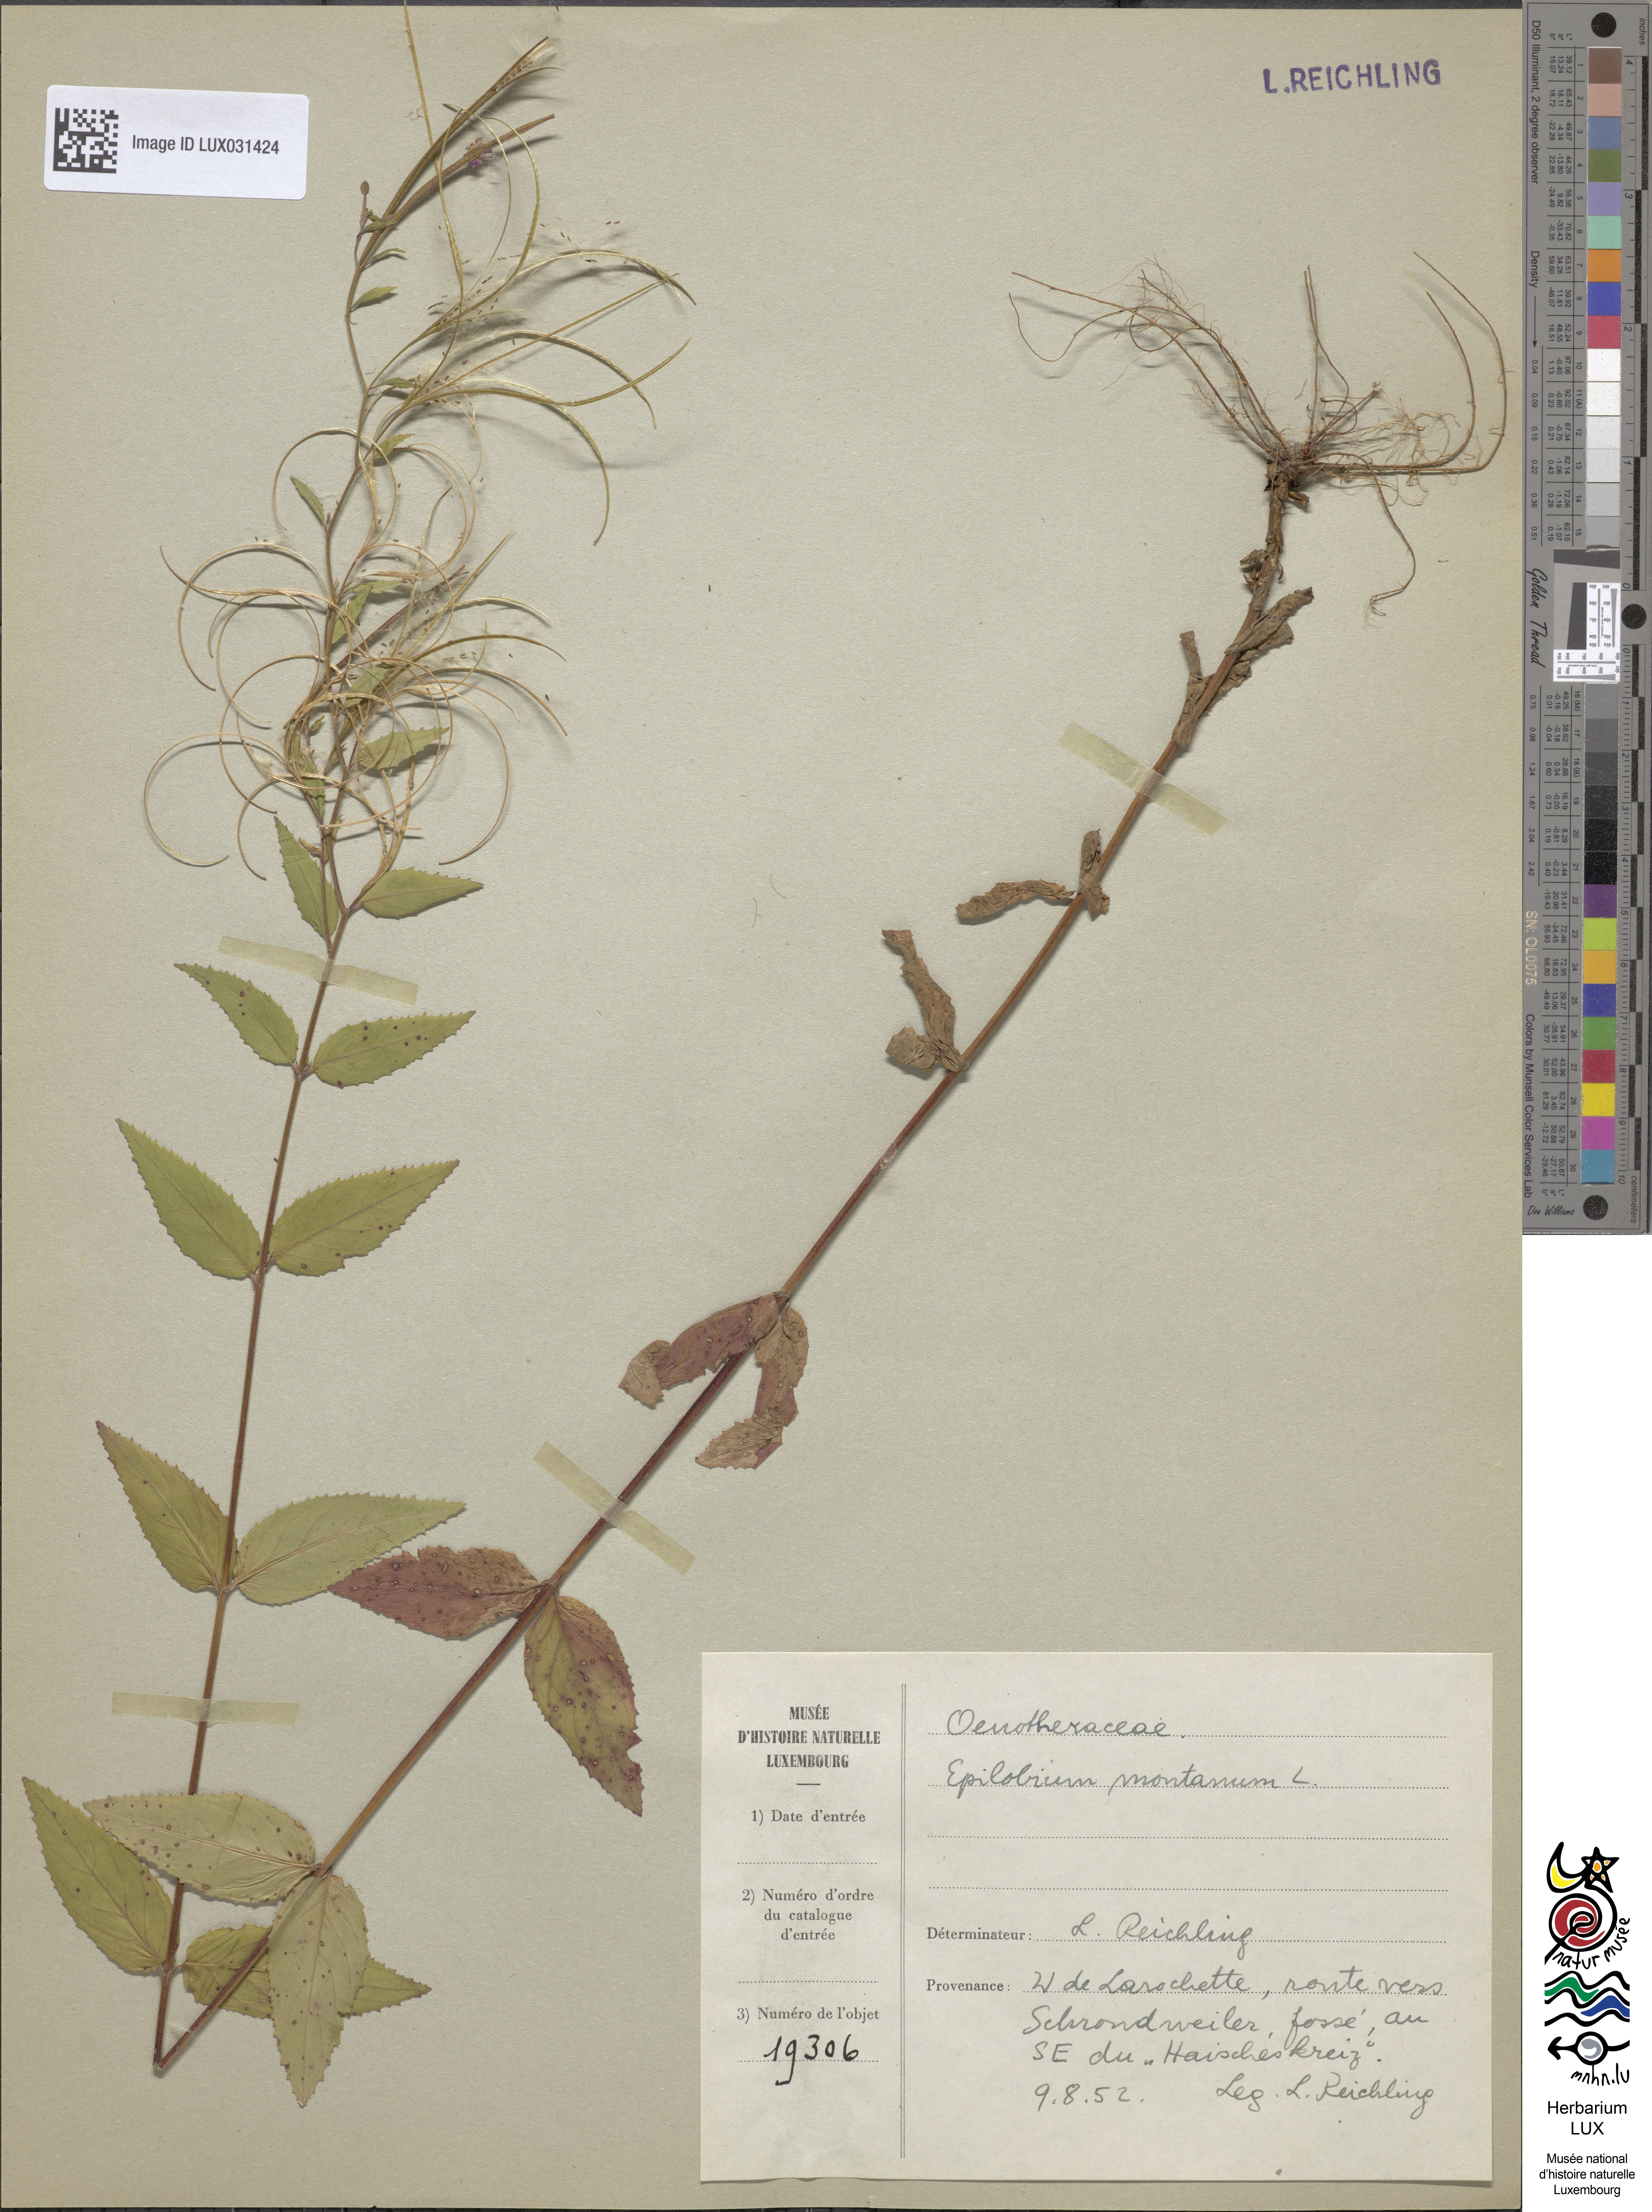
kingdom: Plantae
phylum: Tracheophyta
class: Magnoliopsida
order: Myrtales
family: Onagraceae
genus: Epilobium
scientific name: Epilobium montanum
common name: Broad-leaved willowherb
